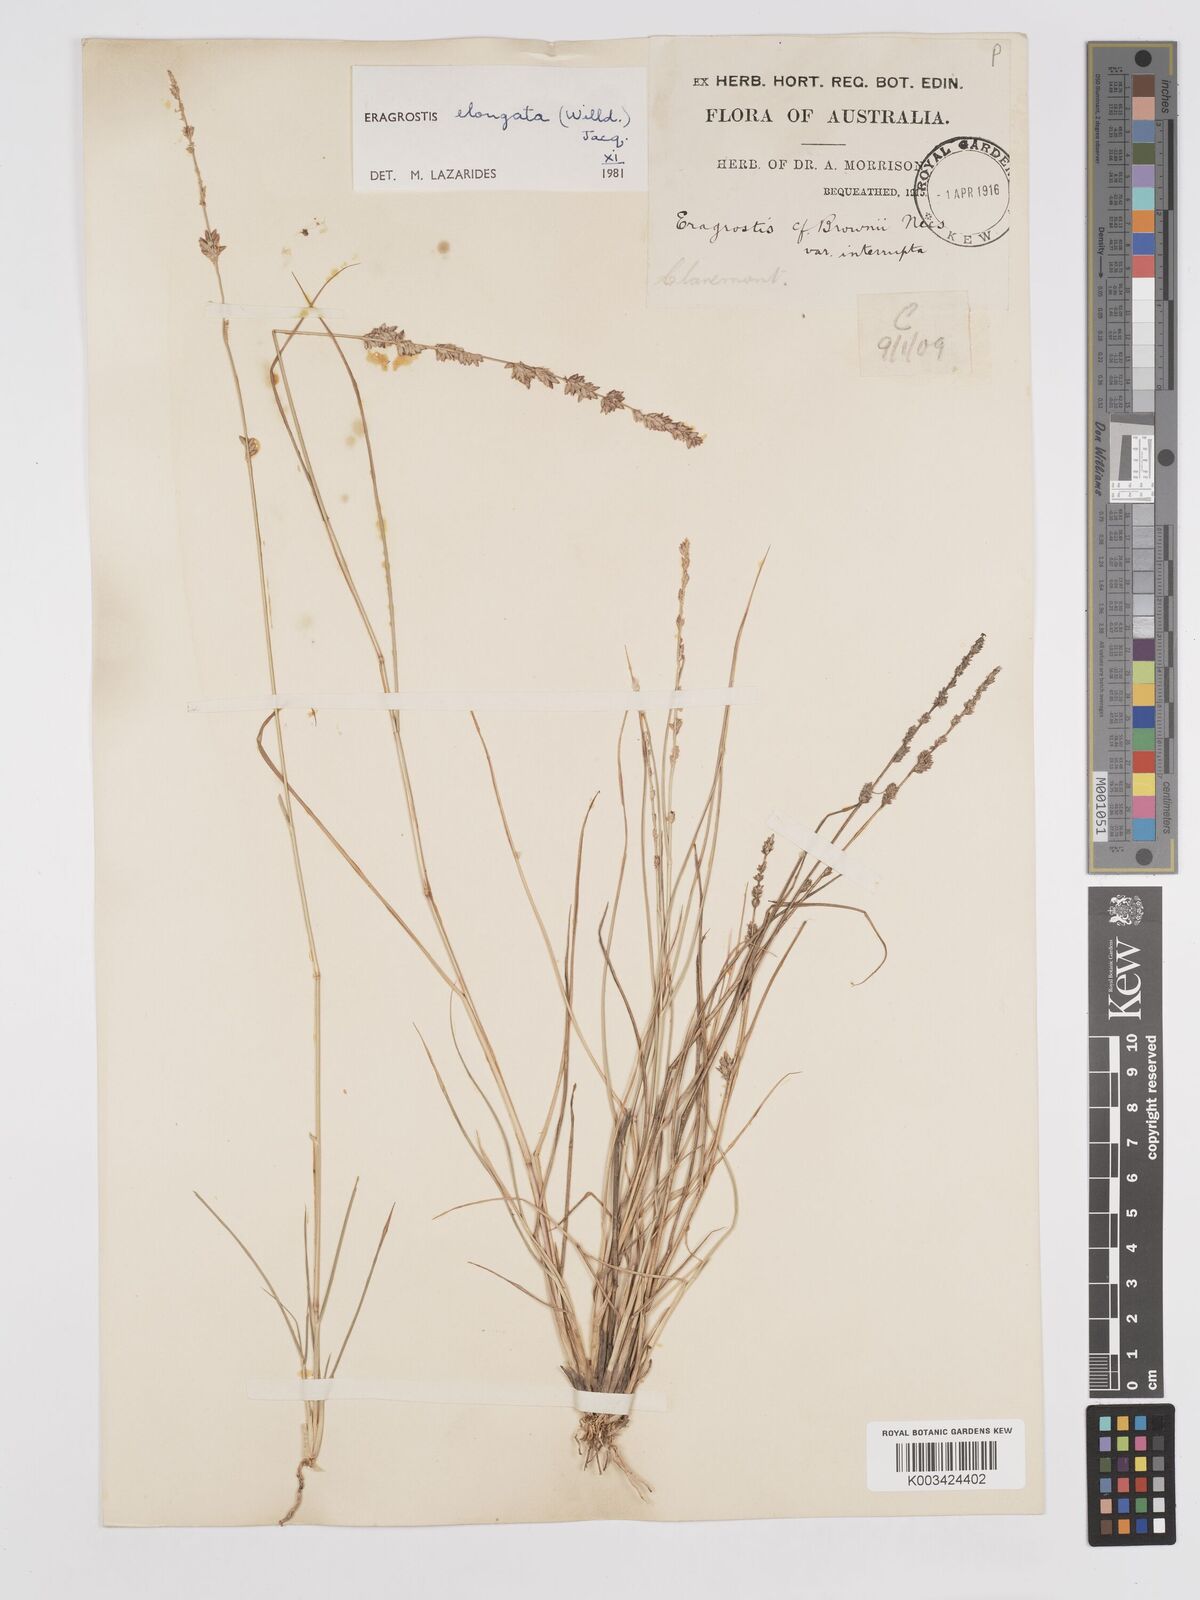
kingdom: Plantae
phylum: Tracheophyta
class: Liliopsida
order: Poales
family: Poaceae
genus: Eragrostis
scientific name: Eragrostis elongata
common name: Long lovegrass
